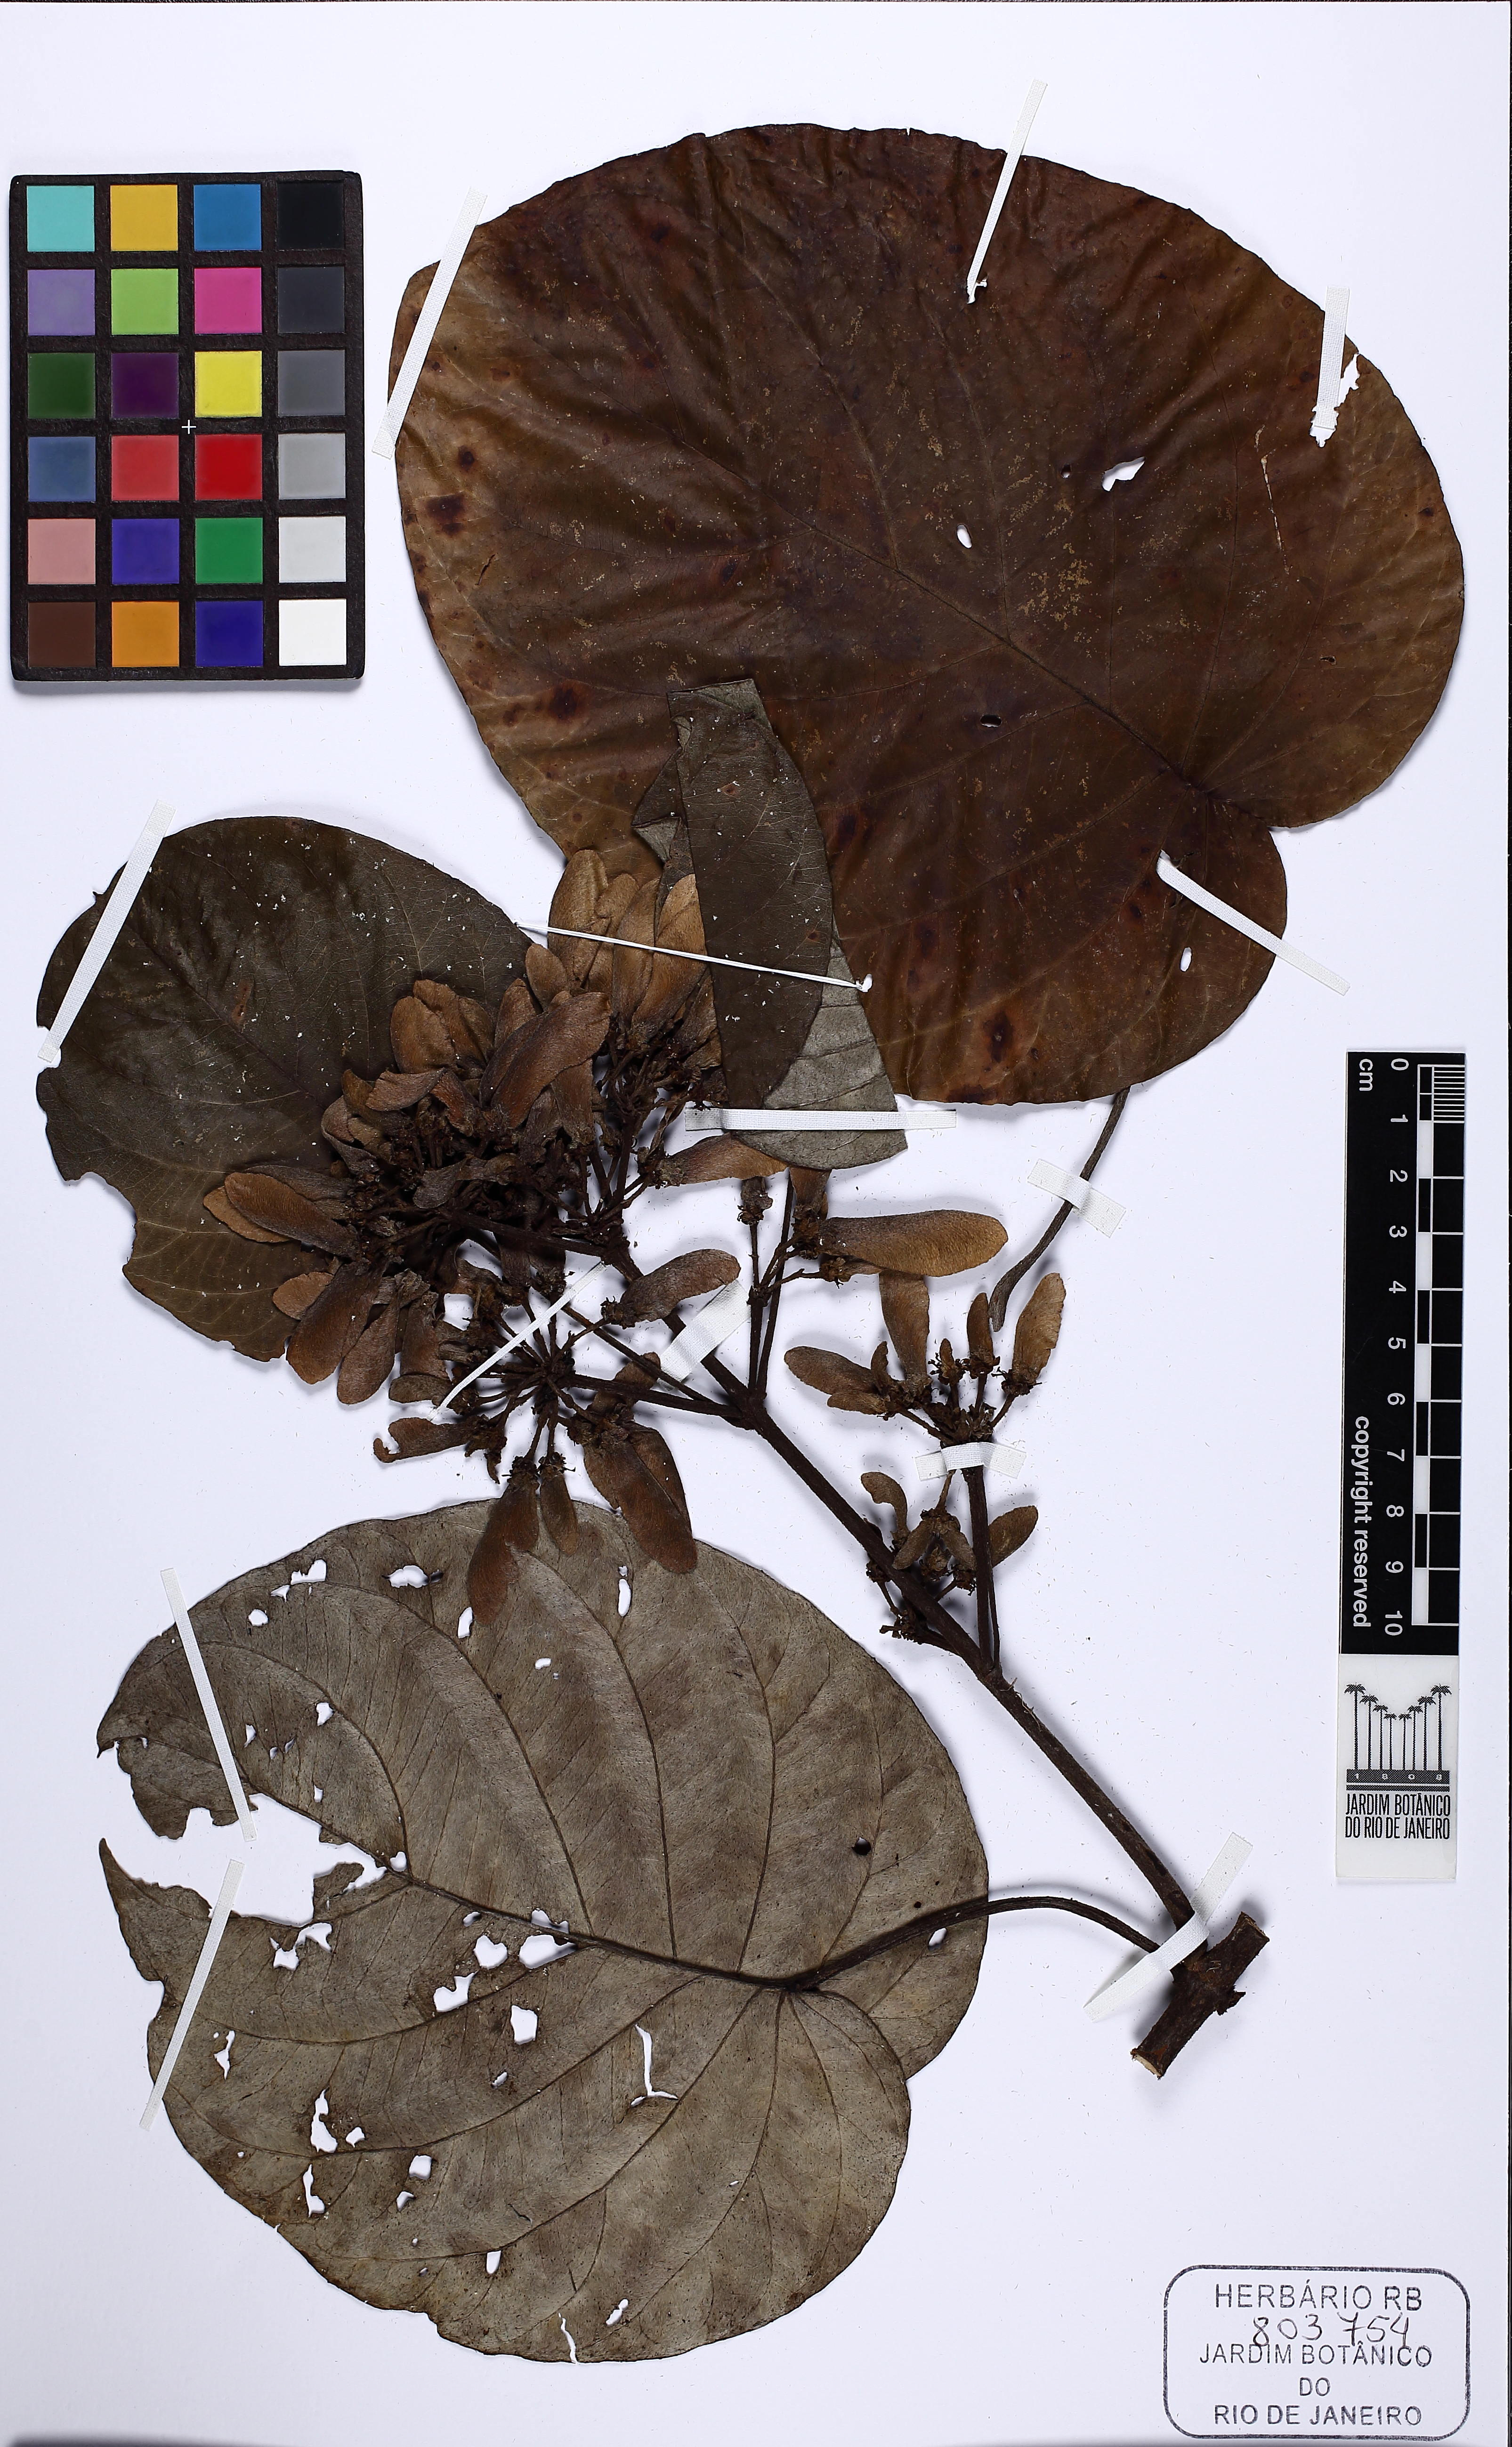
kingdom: Plantae
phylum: Tracheophyta
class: Magnoliopsida
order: Malpighiales
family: Malpighiaceae
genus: Stigmaphyllon
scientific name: Stigmaphyllon maynense
